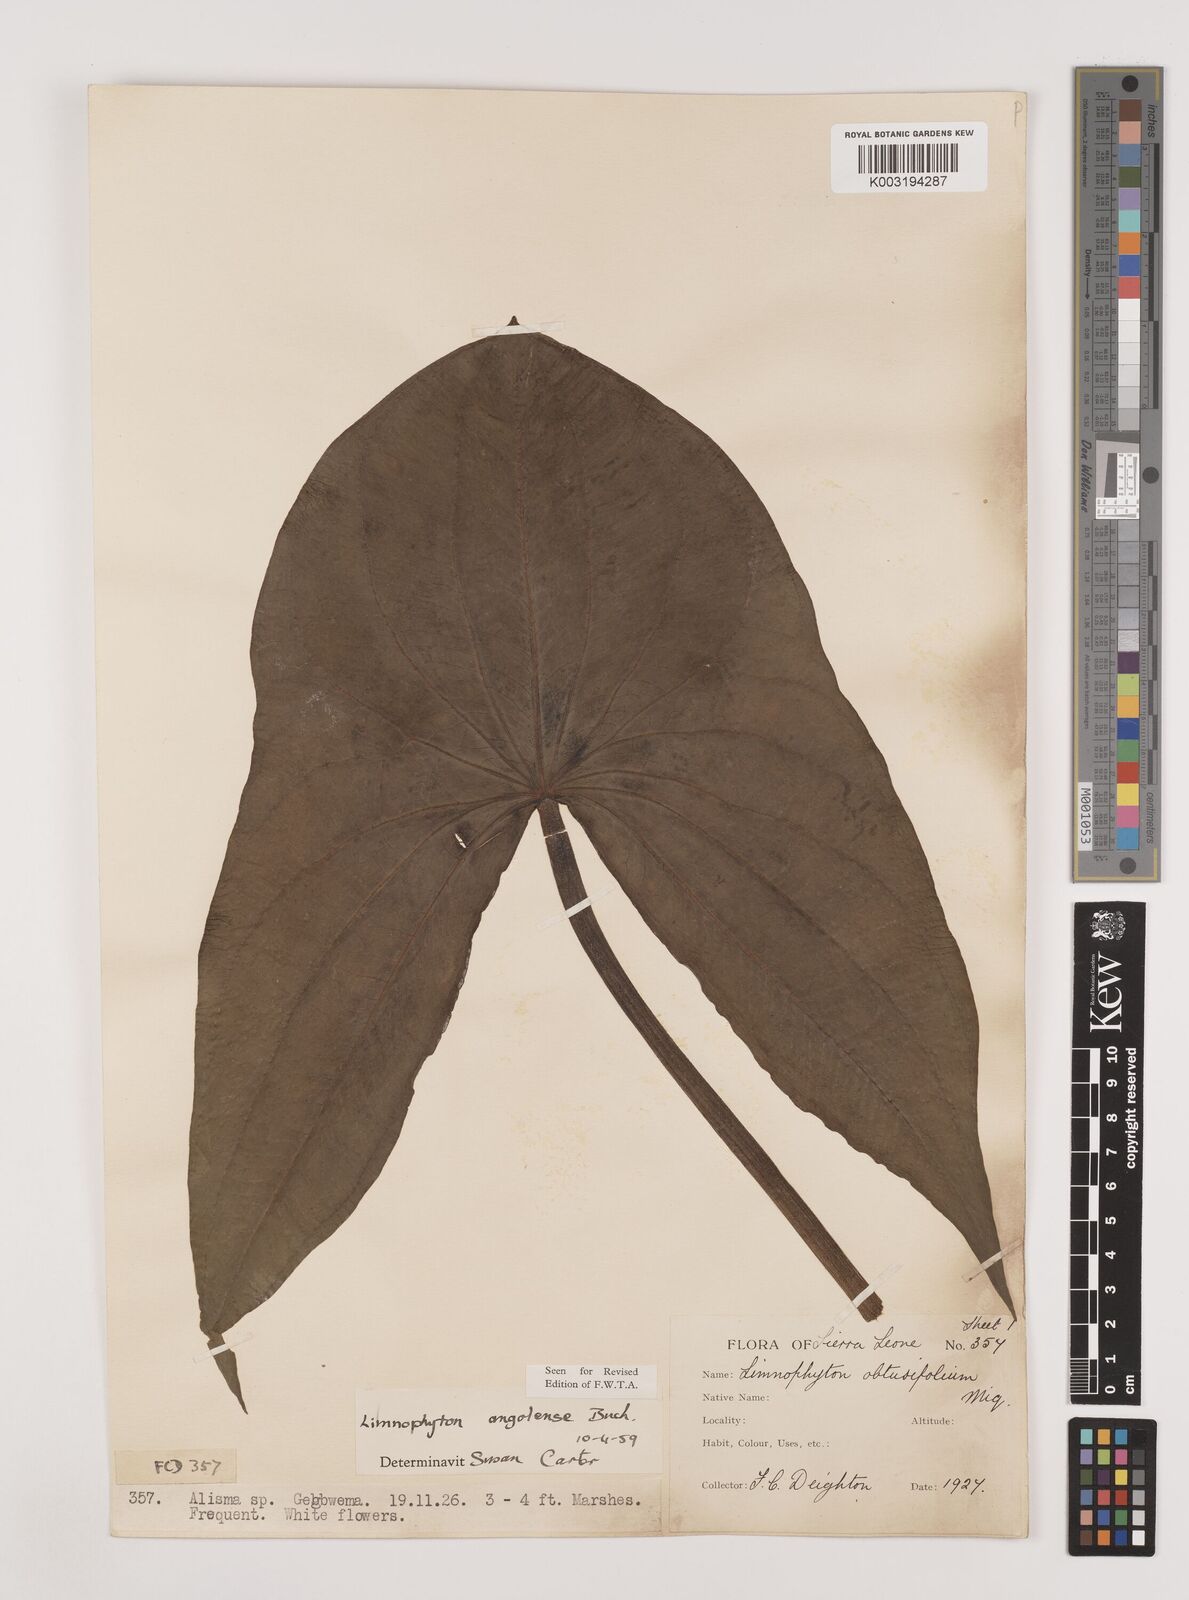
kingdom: Plantae
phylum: Tracheophyta
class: Liliopsida
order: Alismatales
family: Alismataceae
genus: Limnophyton
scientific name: Limnophyton angolense
